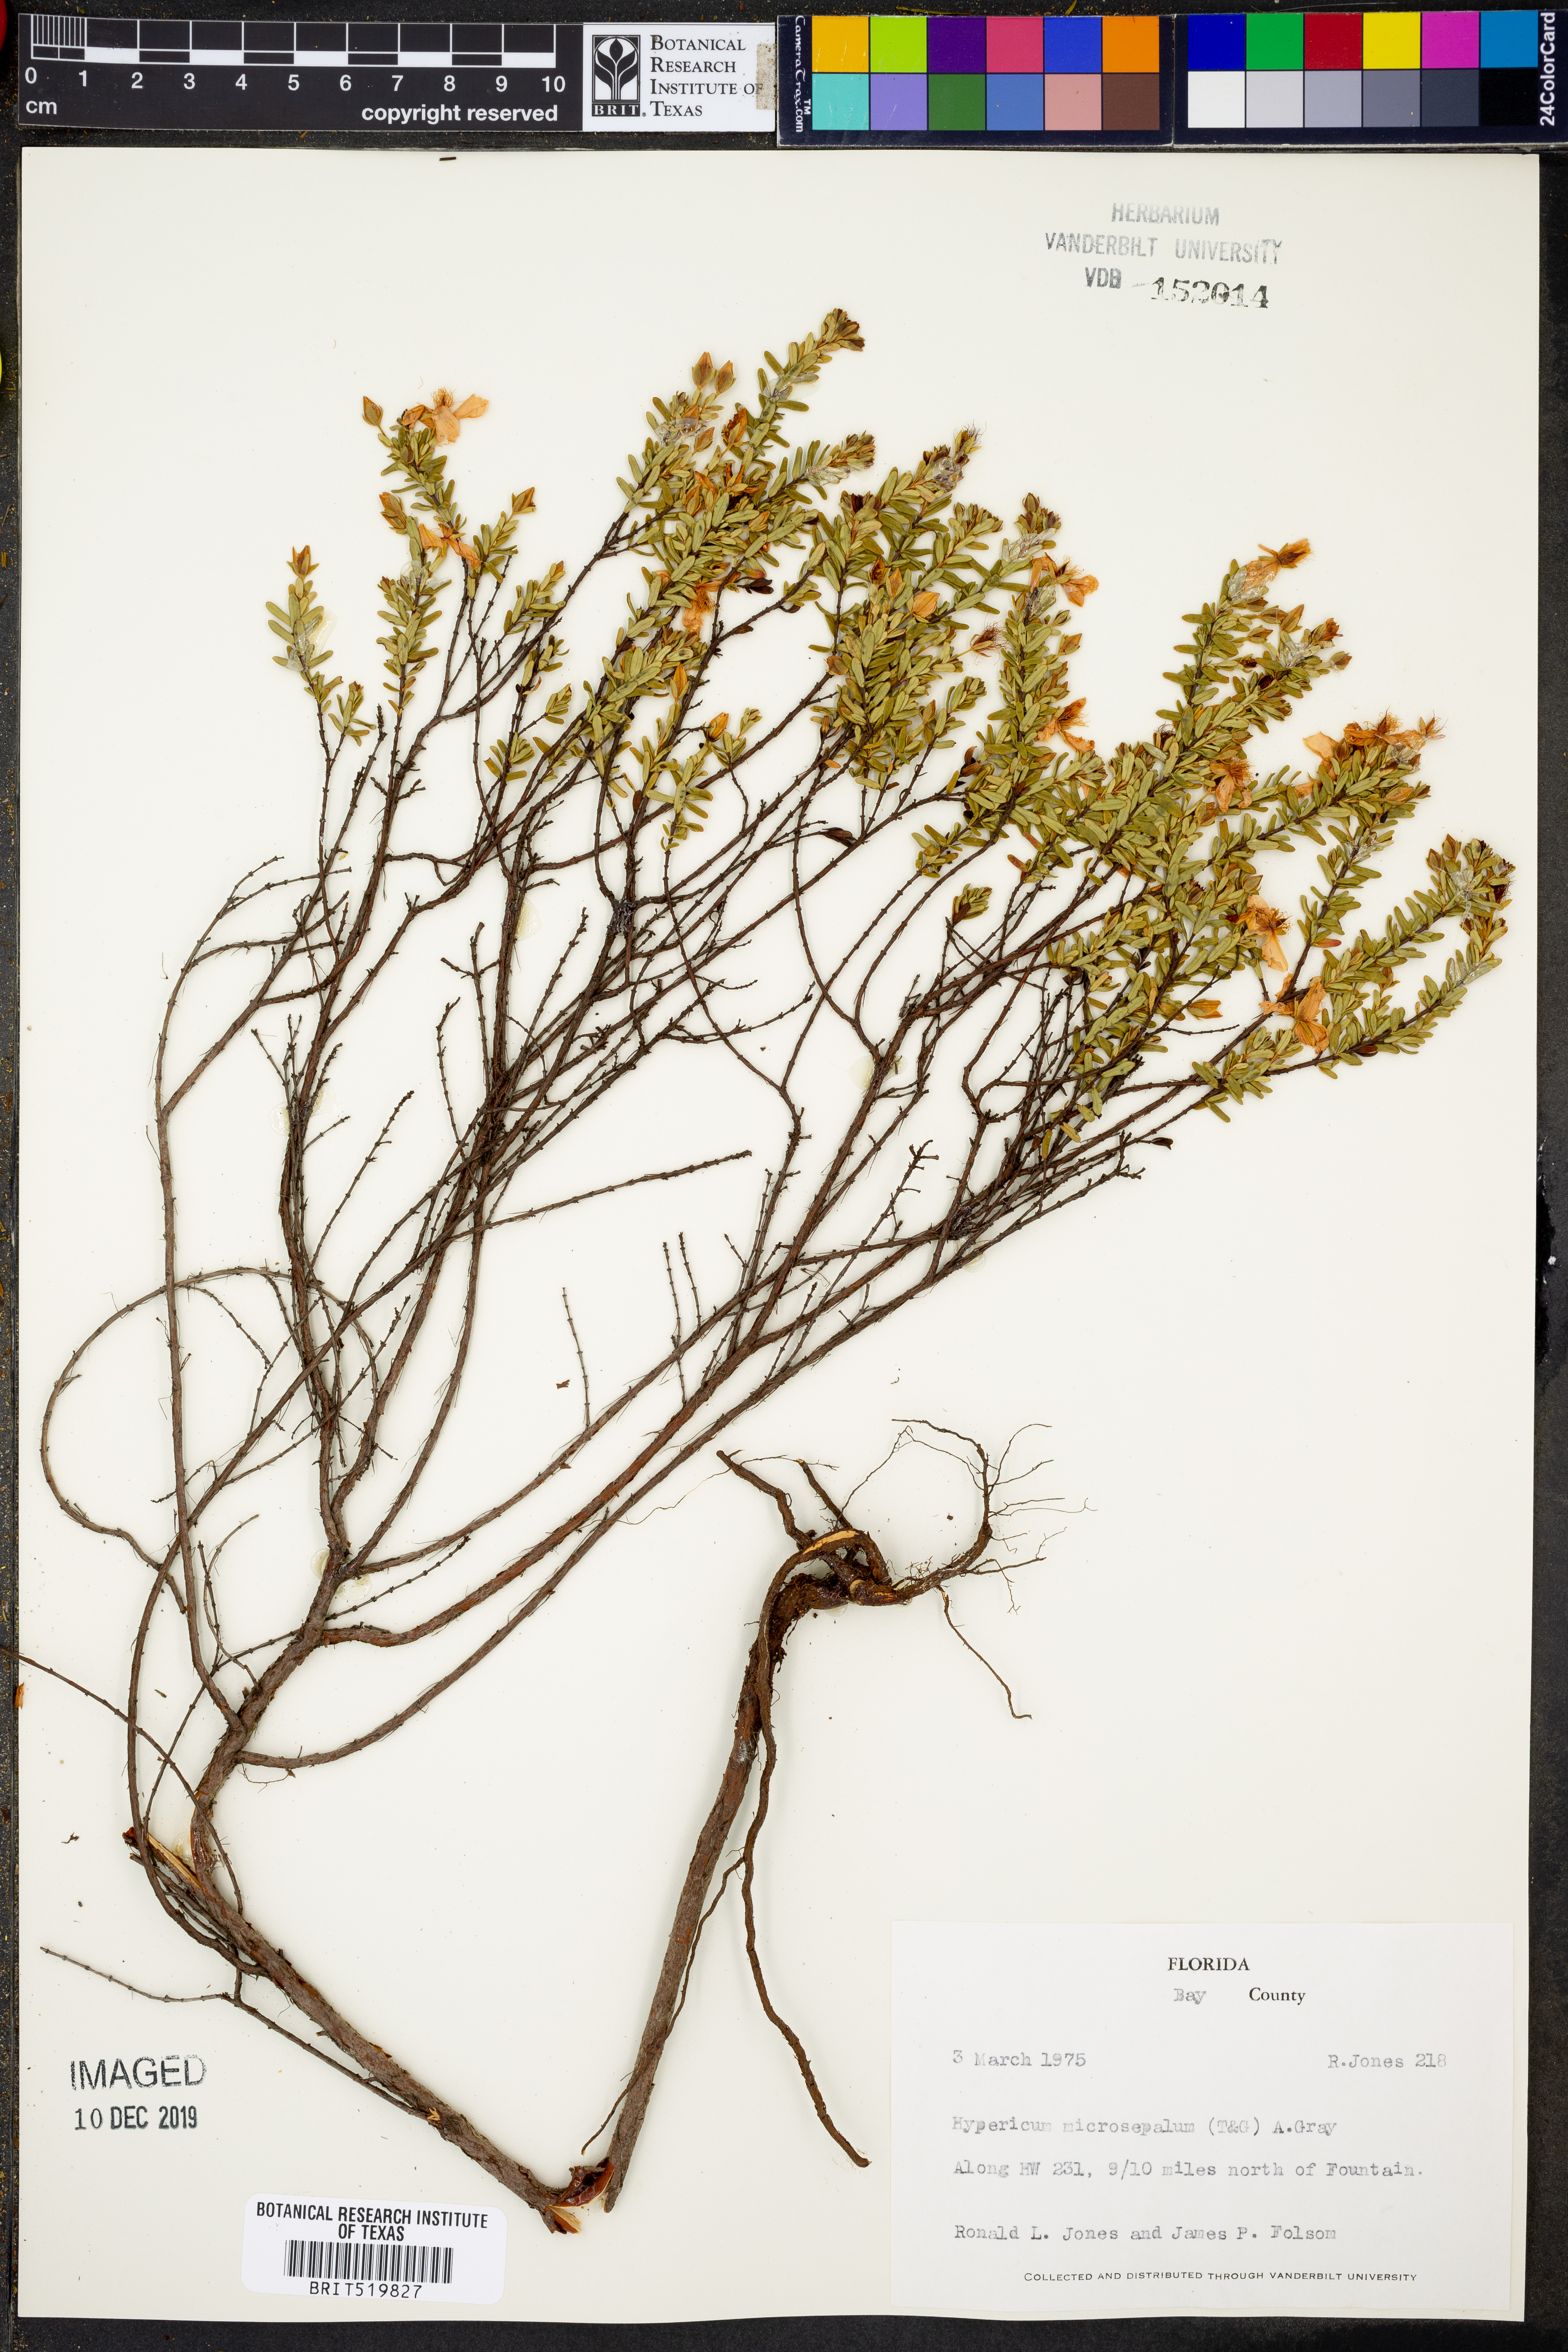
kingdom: Plantae
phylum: Tracheophyta
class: Magnoliopsida
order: Malpighiales
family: Hypericaceae
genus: Hypericum
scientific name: Hypericum microsepalum
